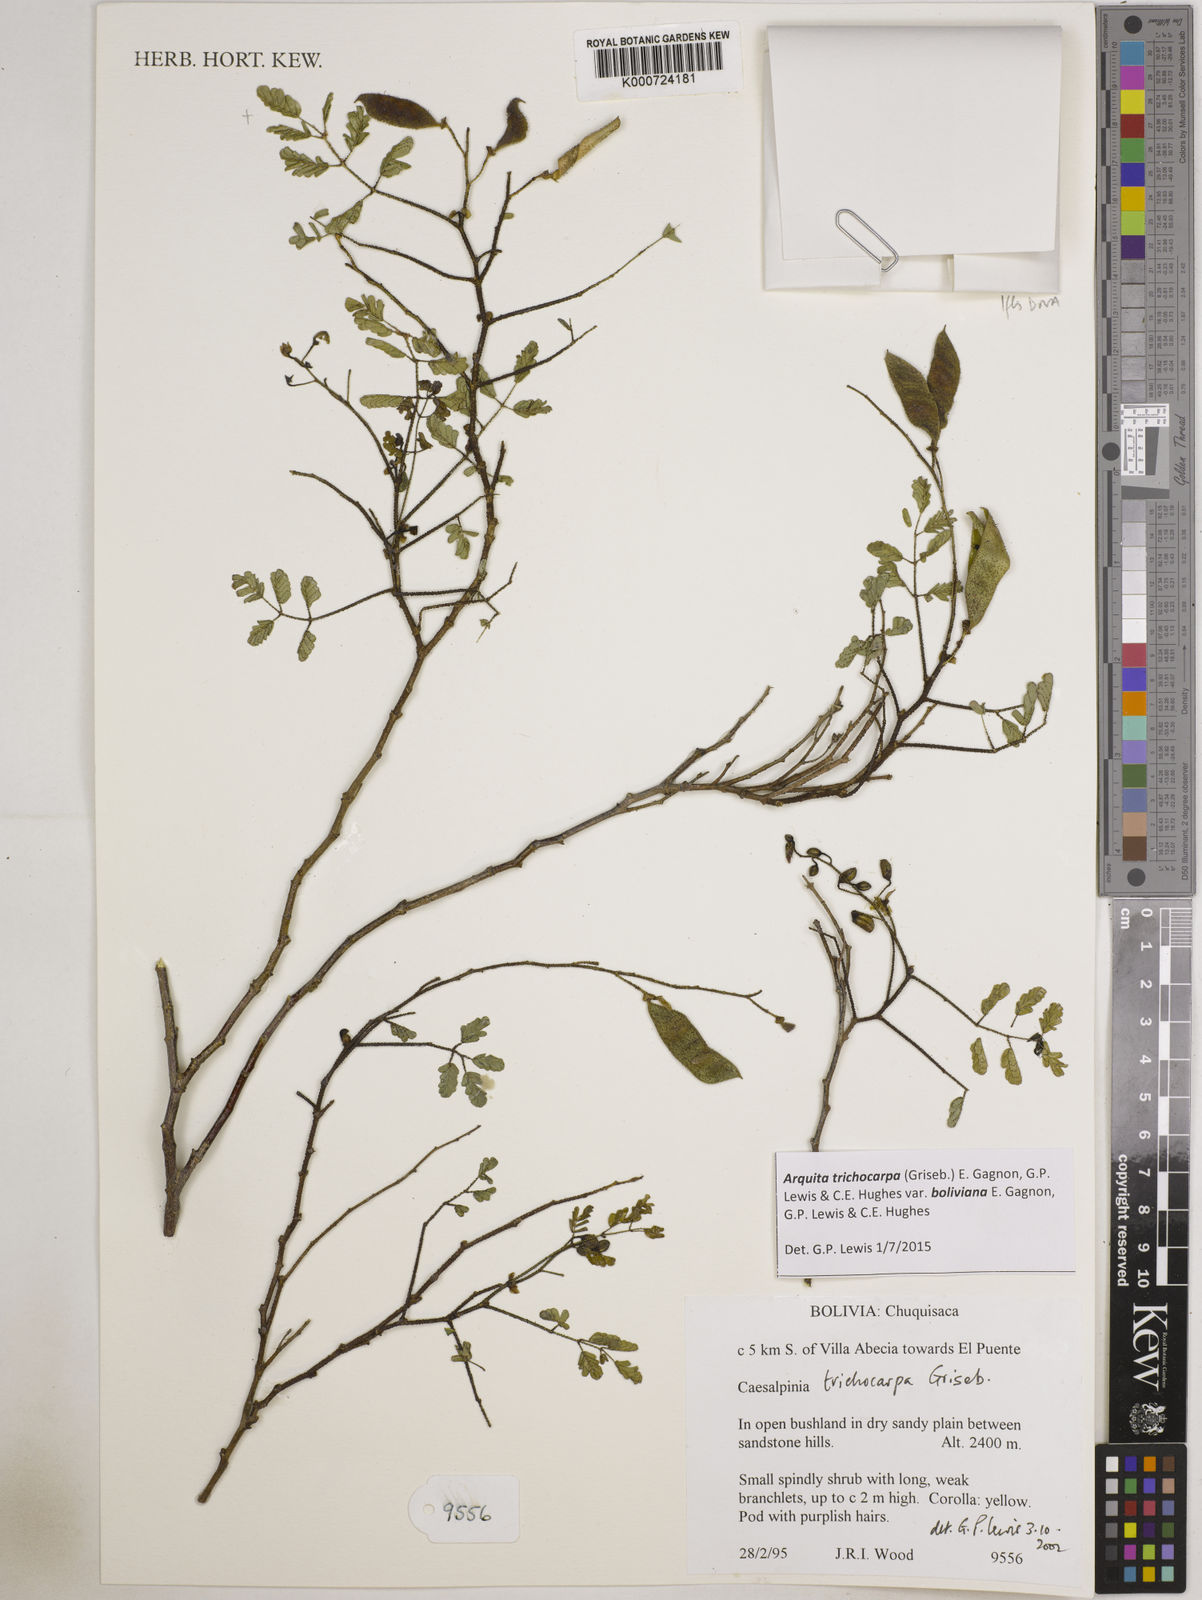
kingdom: Plantae
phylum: Tracheophyta
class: Magnoliopsida
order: Fabales
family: Fabaceae
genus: Arquita
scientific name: Arquita trichocarpa
